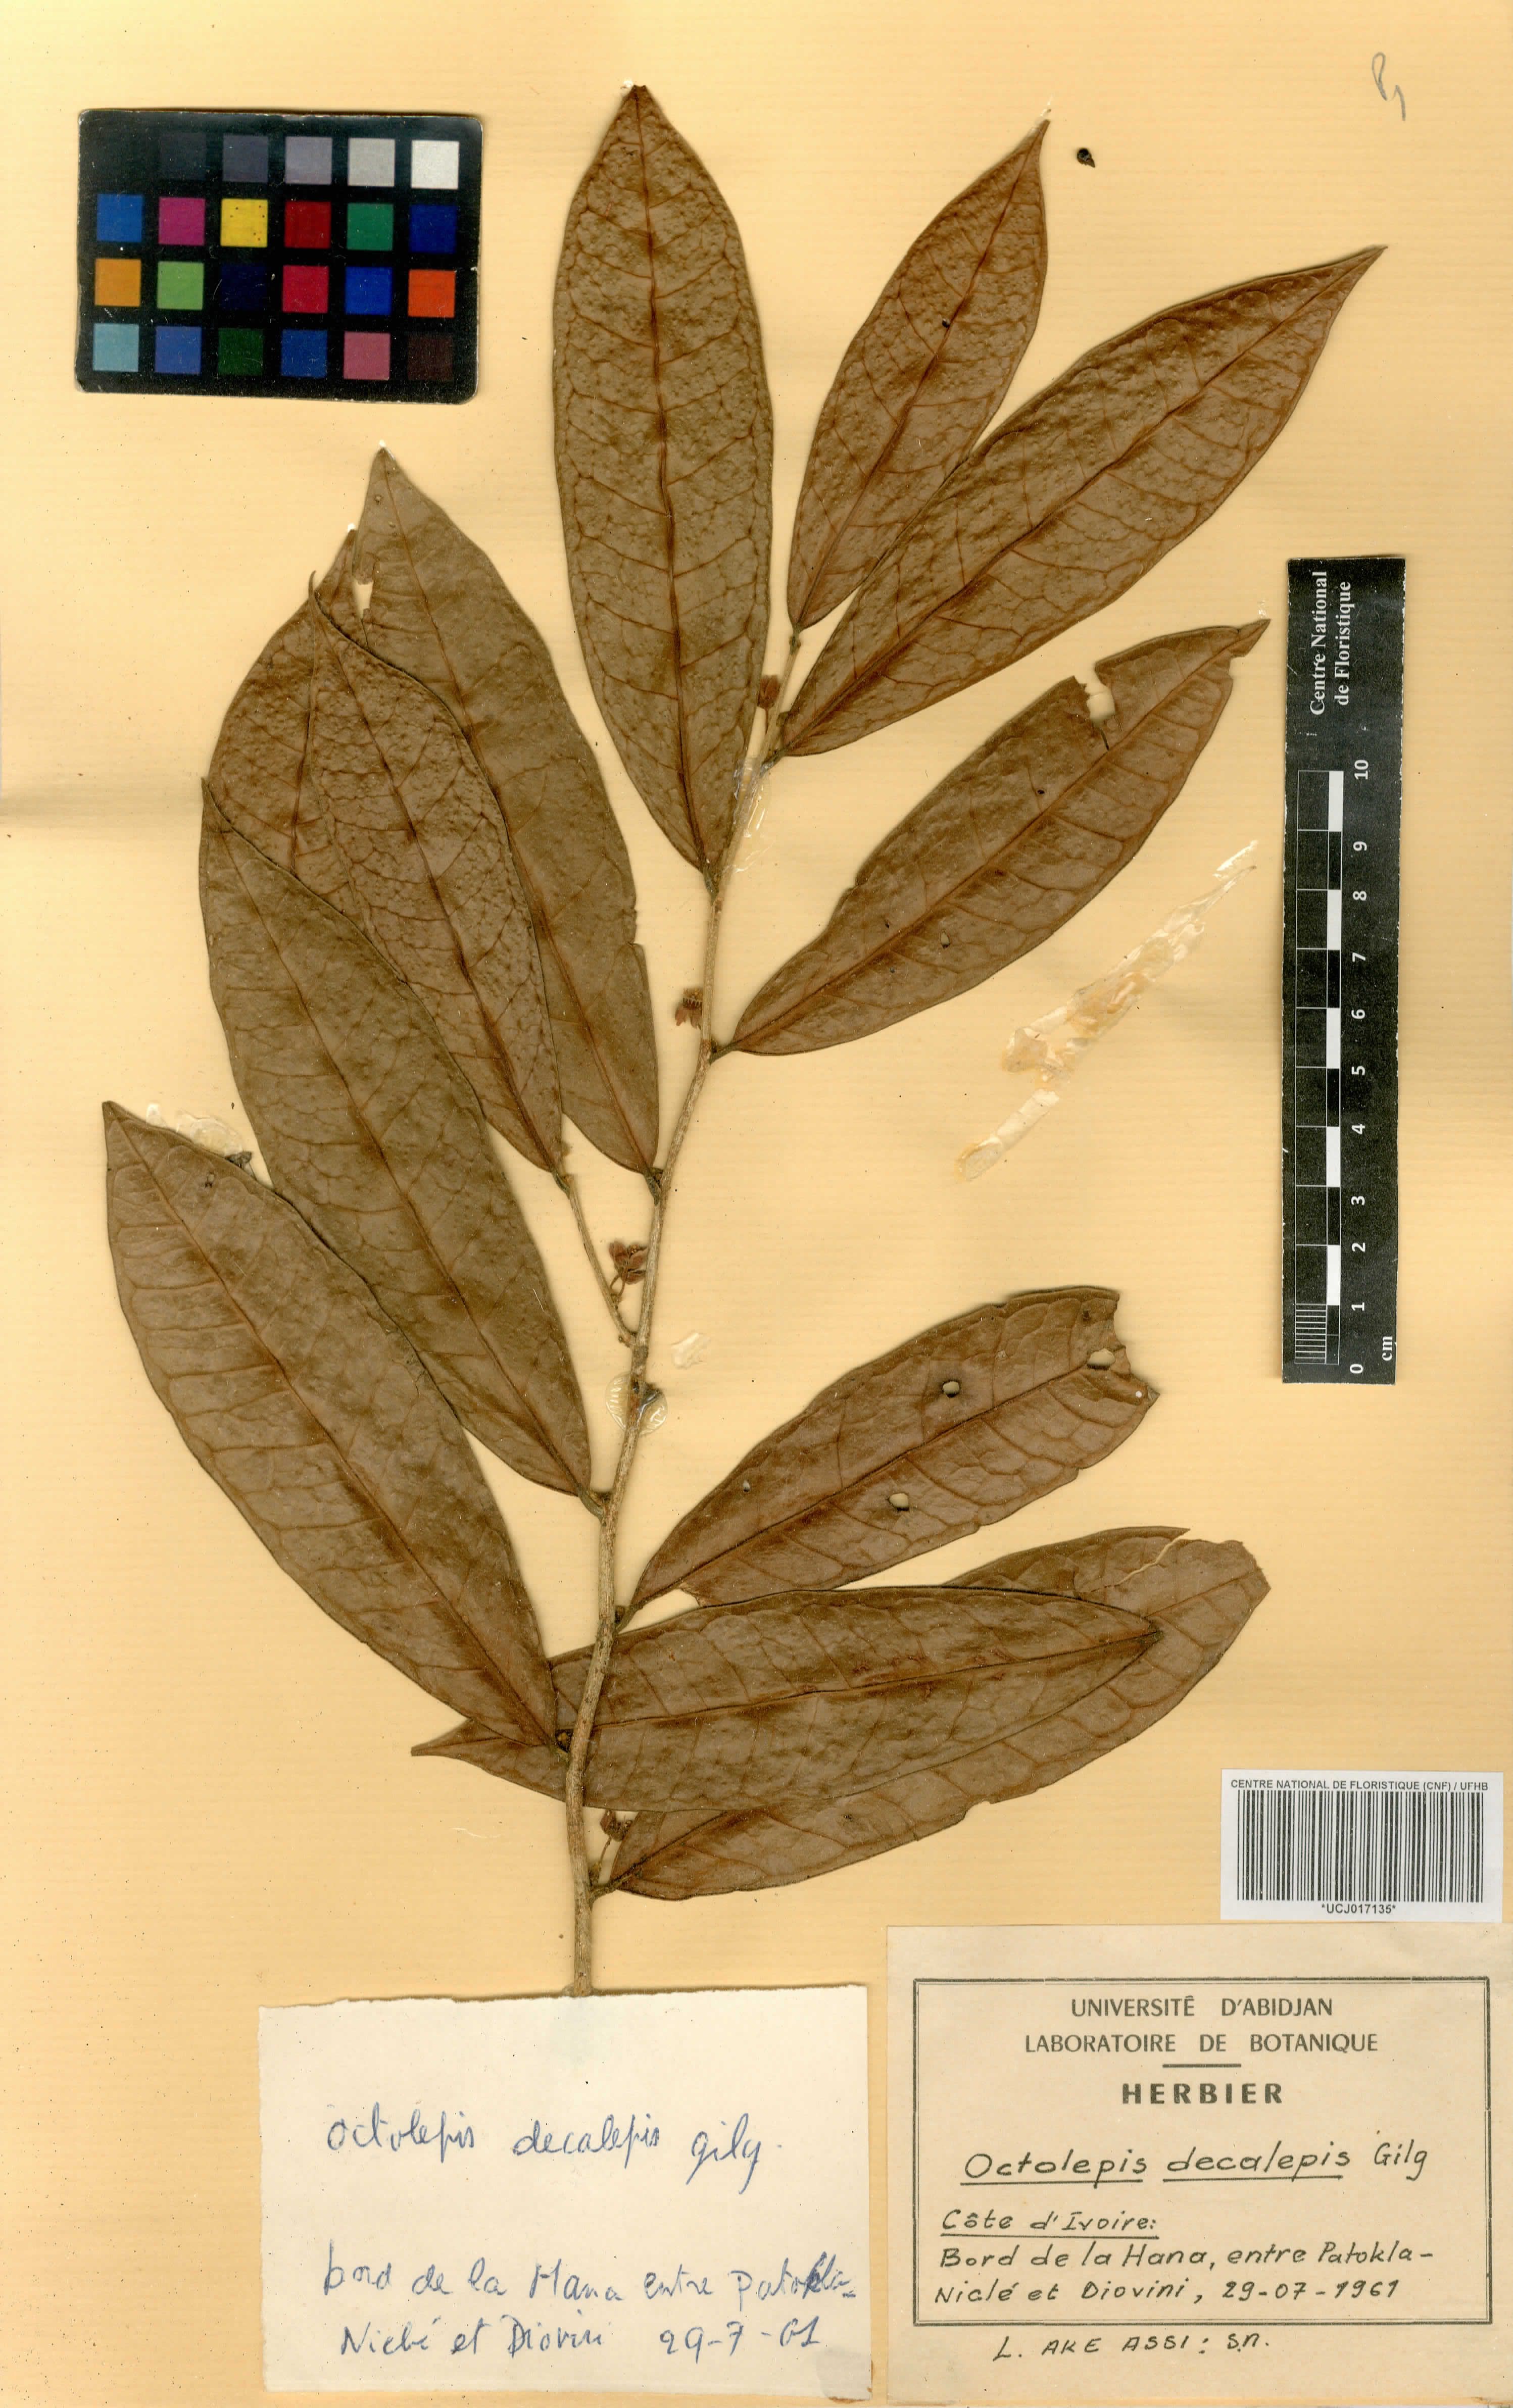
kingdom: Plantae
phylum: Tracheophyta
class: Magnoliopsida
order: Malvales
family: Thymelaeaceae
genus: Octolepis
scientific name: Octolepis decalepis
